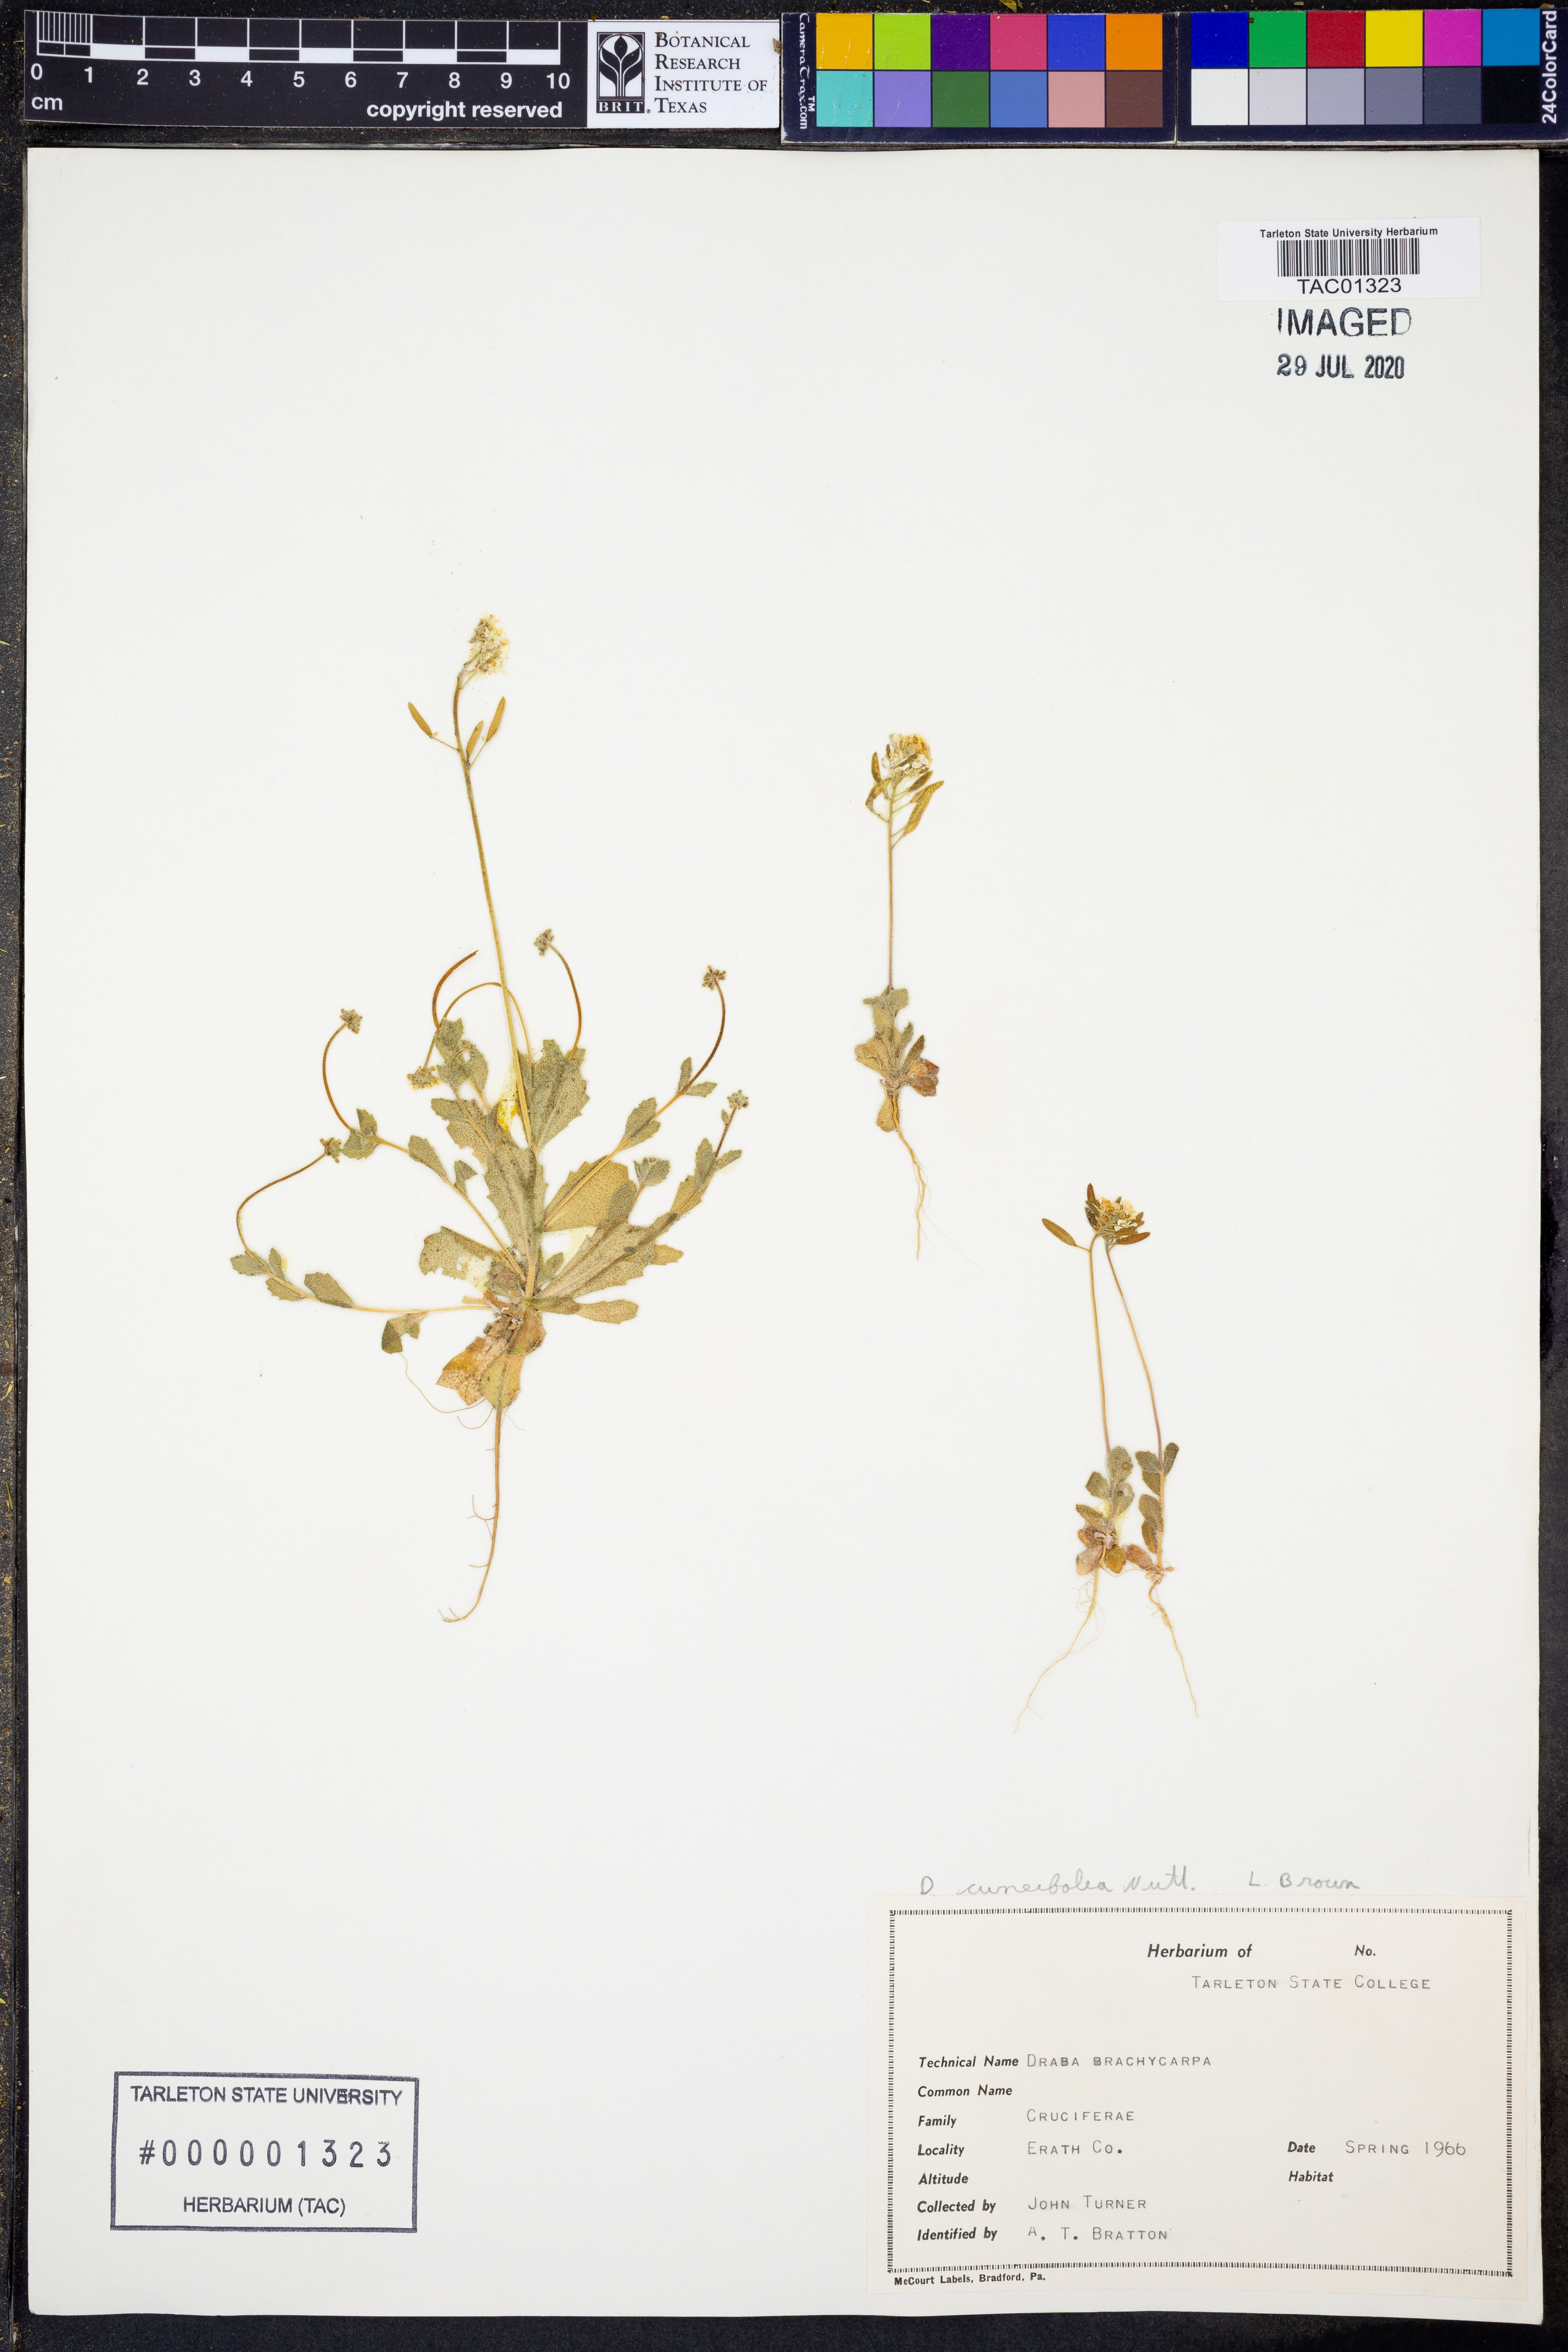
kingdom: Plantae
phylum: Tracheophyta
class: Magnoliopsida
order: Brassicales
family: Brassicaceae
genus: Tomostima
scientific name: Tomostima cuneifolia
